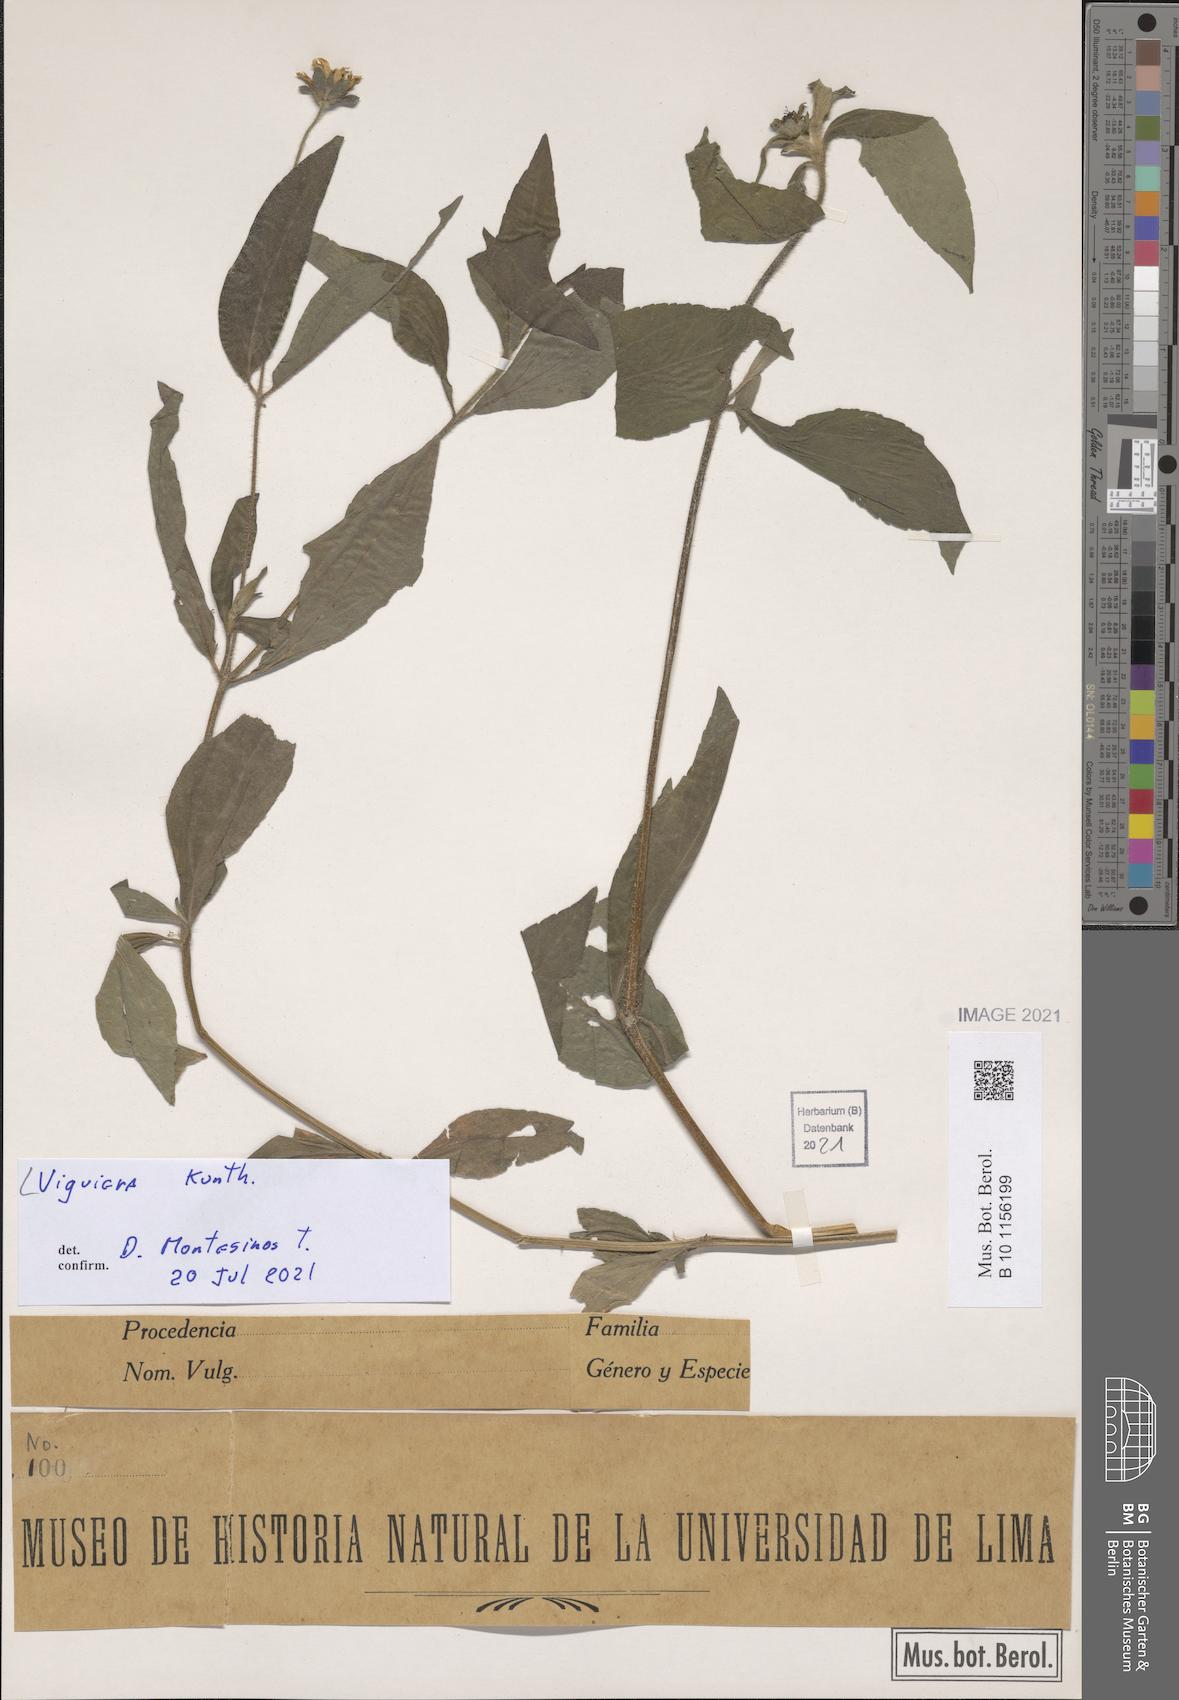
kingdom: Plantae
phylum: Tracheophyta
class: Magnoliopsida
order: Asterales
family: Asteraceae
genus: Viguiera
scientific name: Viguiera
